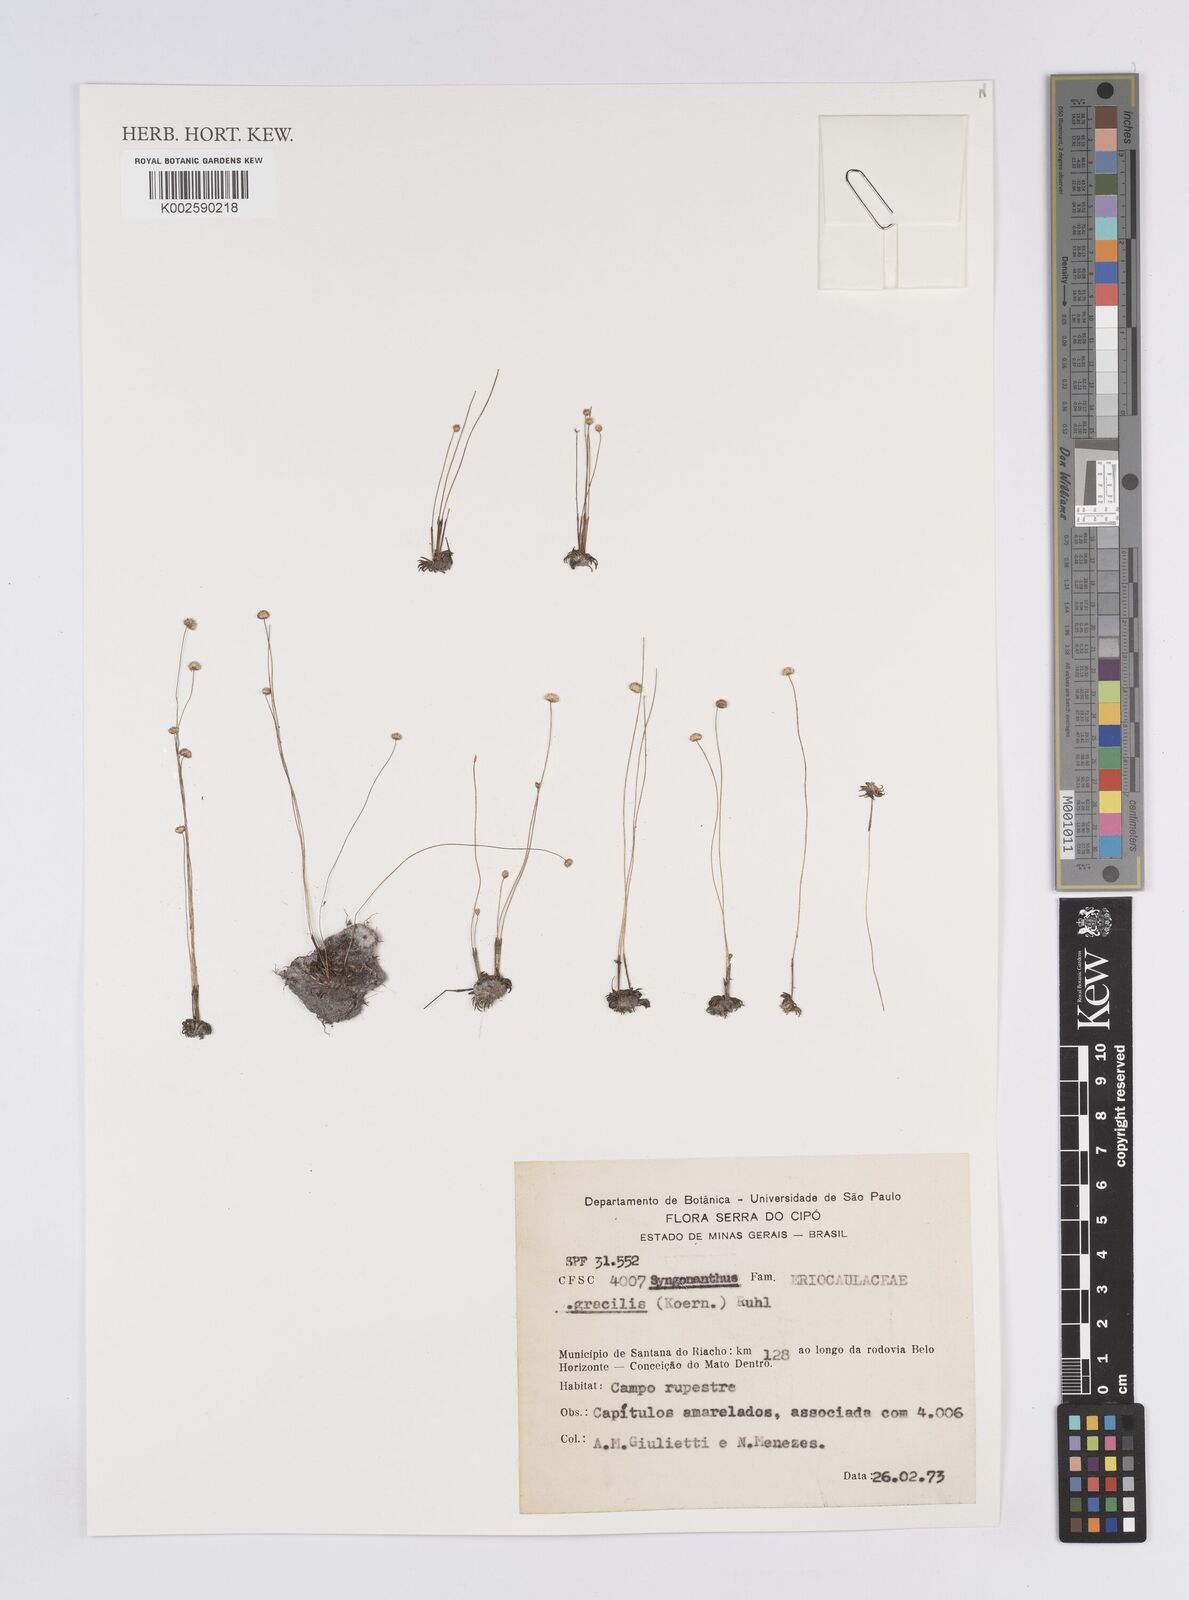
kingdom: Plantae
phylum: Tracheophyta
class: Liliopsida
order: Poales
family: Eriocaulaceae
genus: Syngonanthus
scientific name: Syngonanthus gracilis
